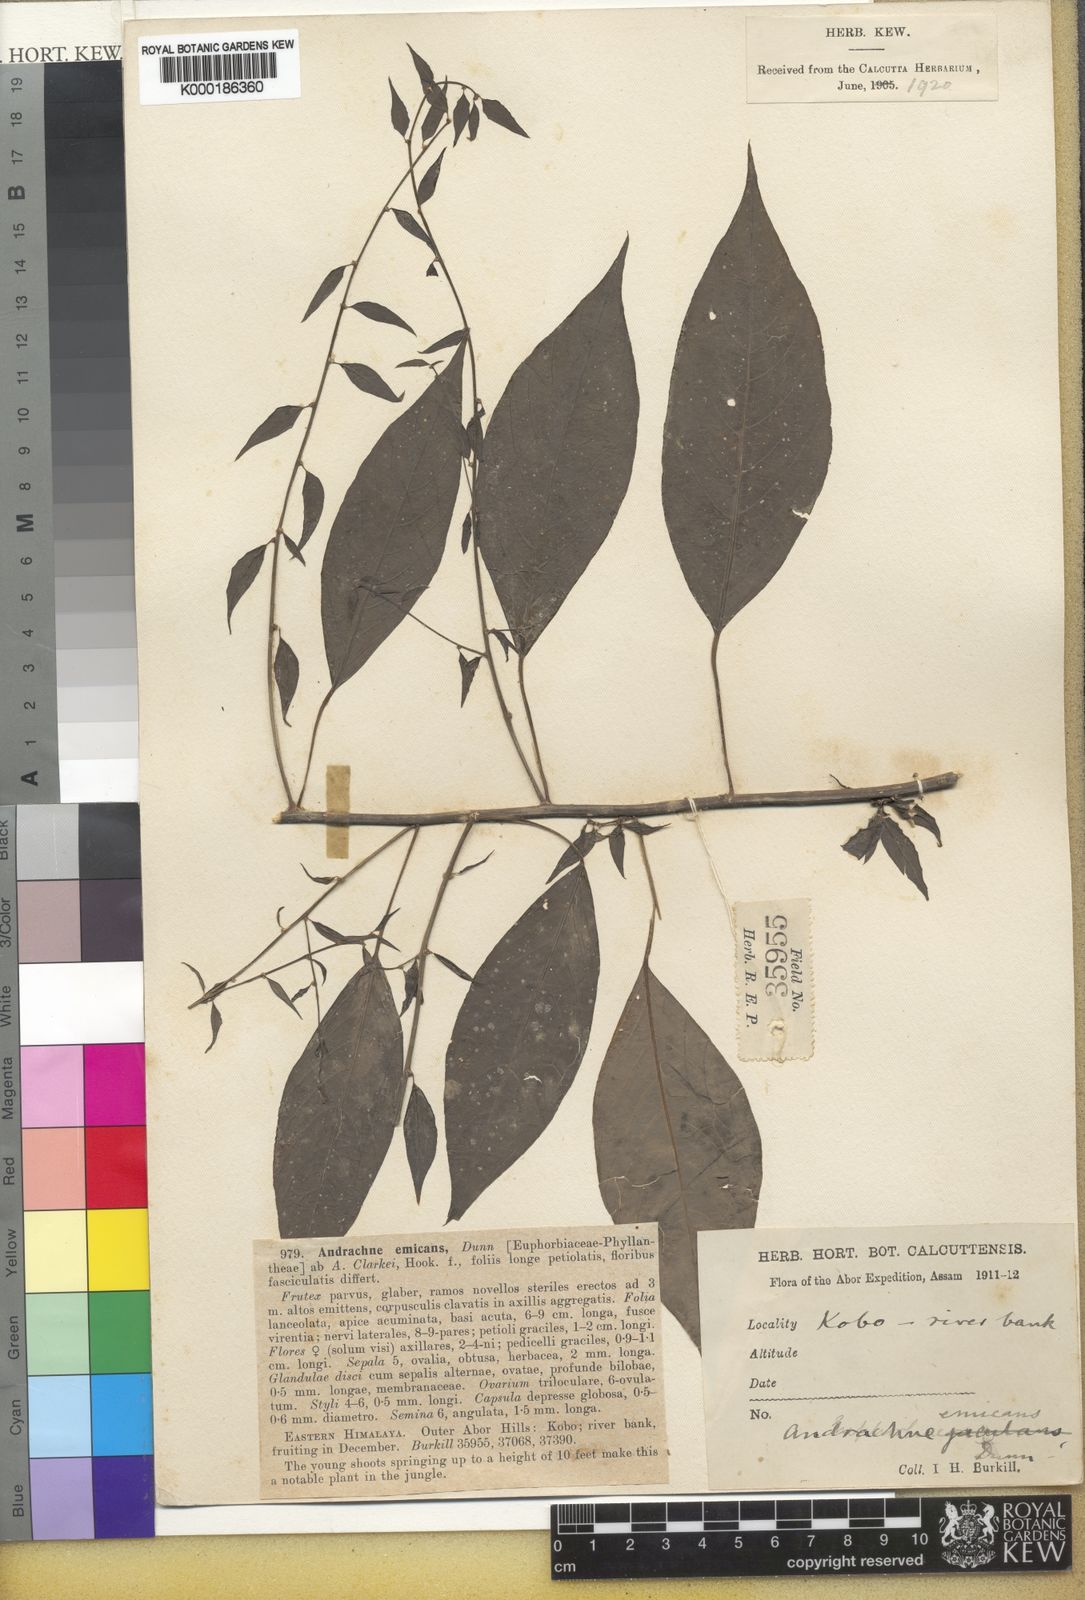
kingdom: Plantae
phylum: Tracheophyta
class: Magnoliopsida
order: Malpighiales
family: Phyllanthaceae
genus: Leptopus
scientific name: Leptopus emicans
